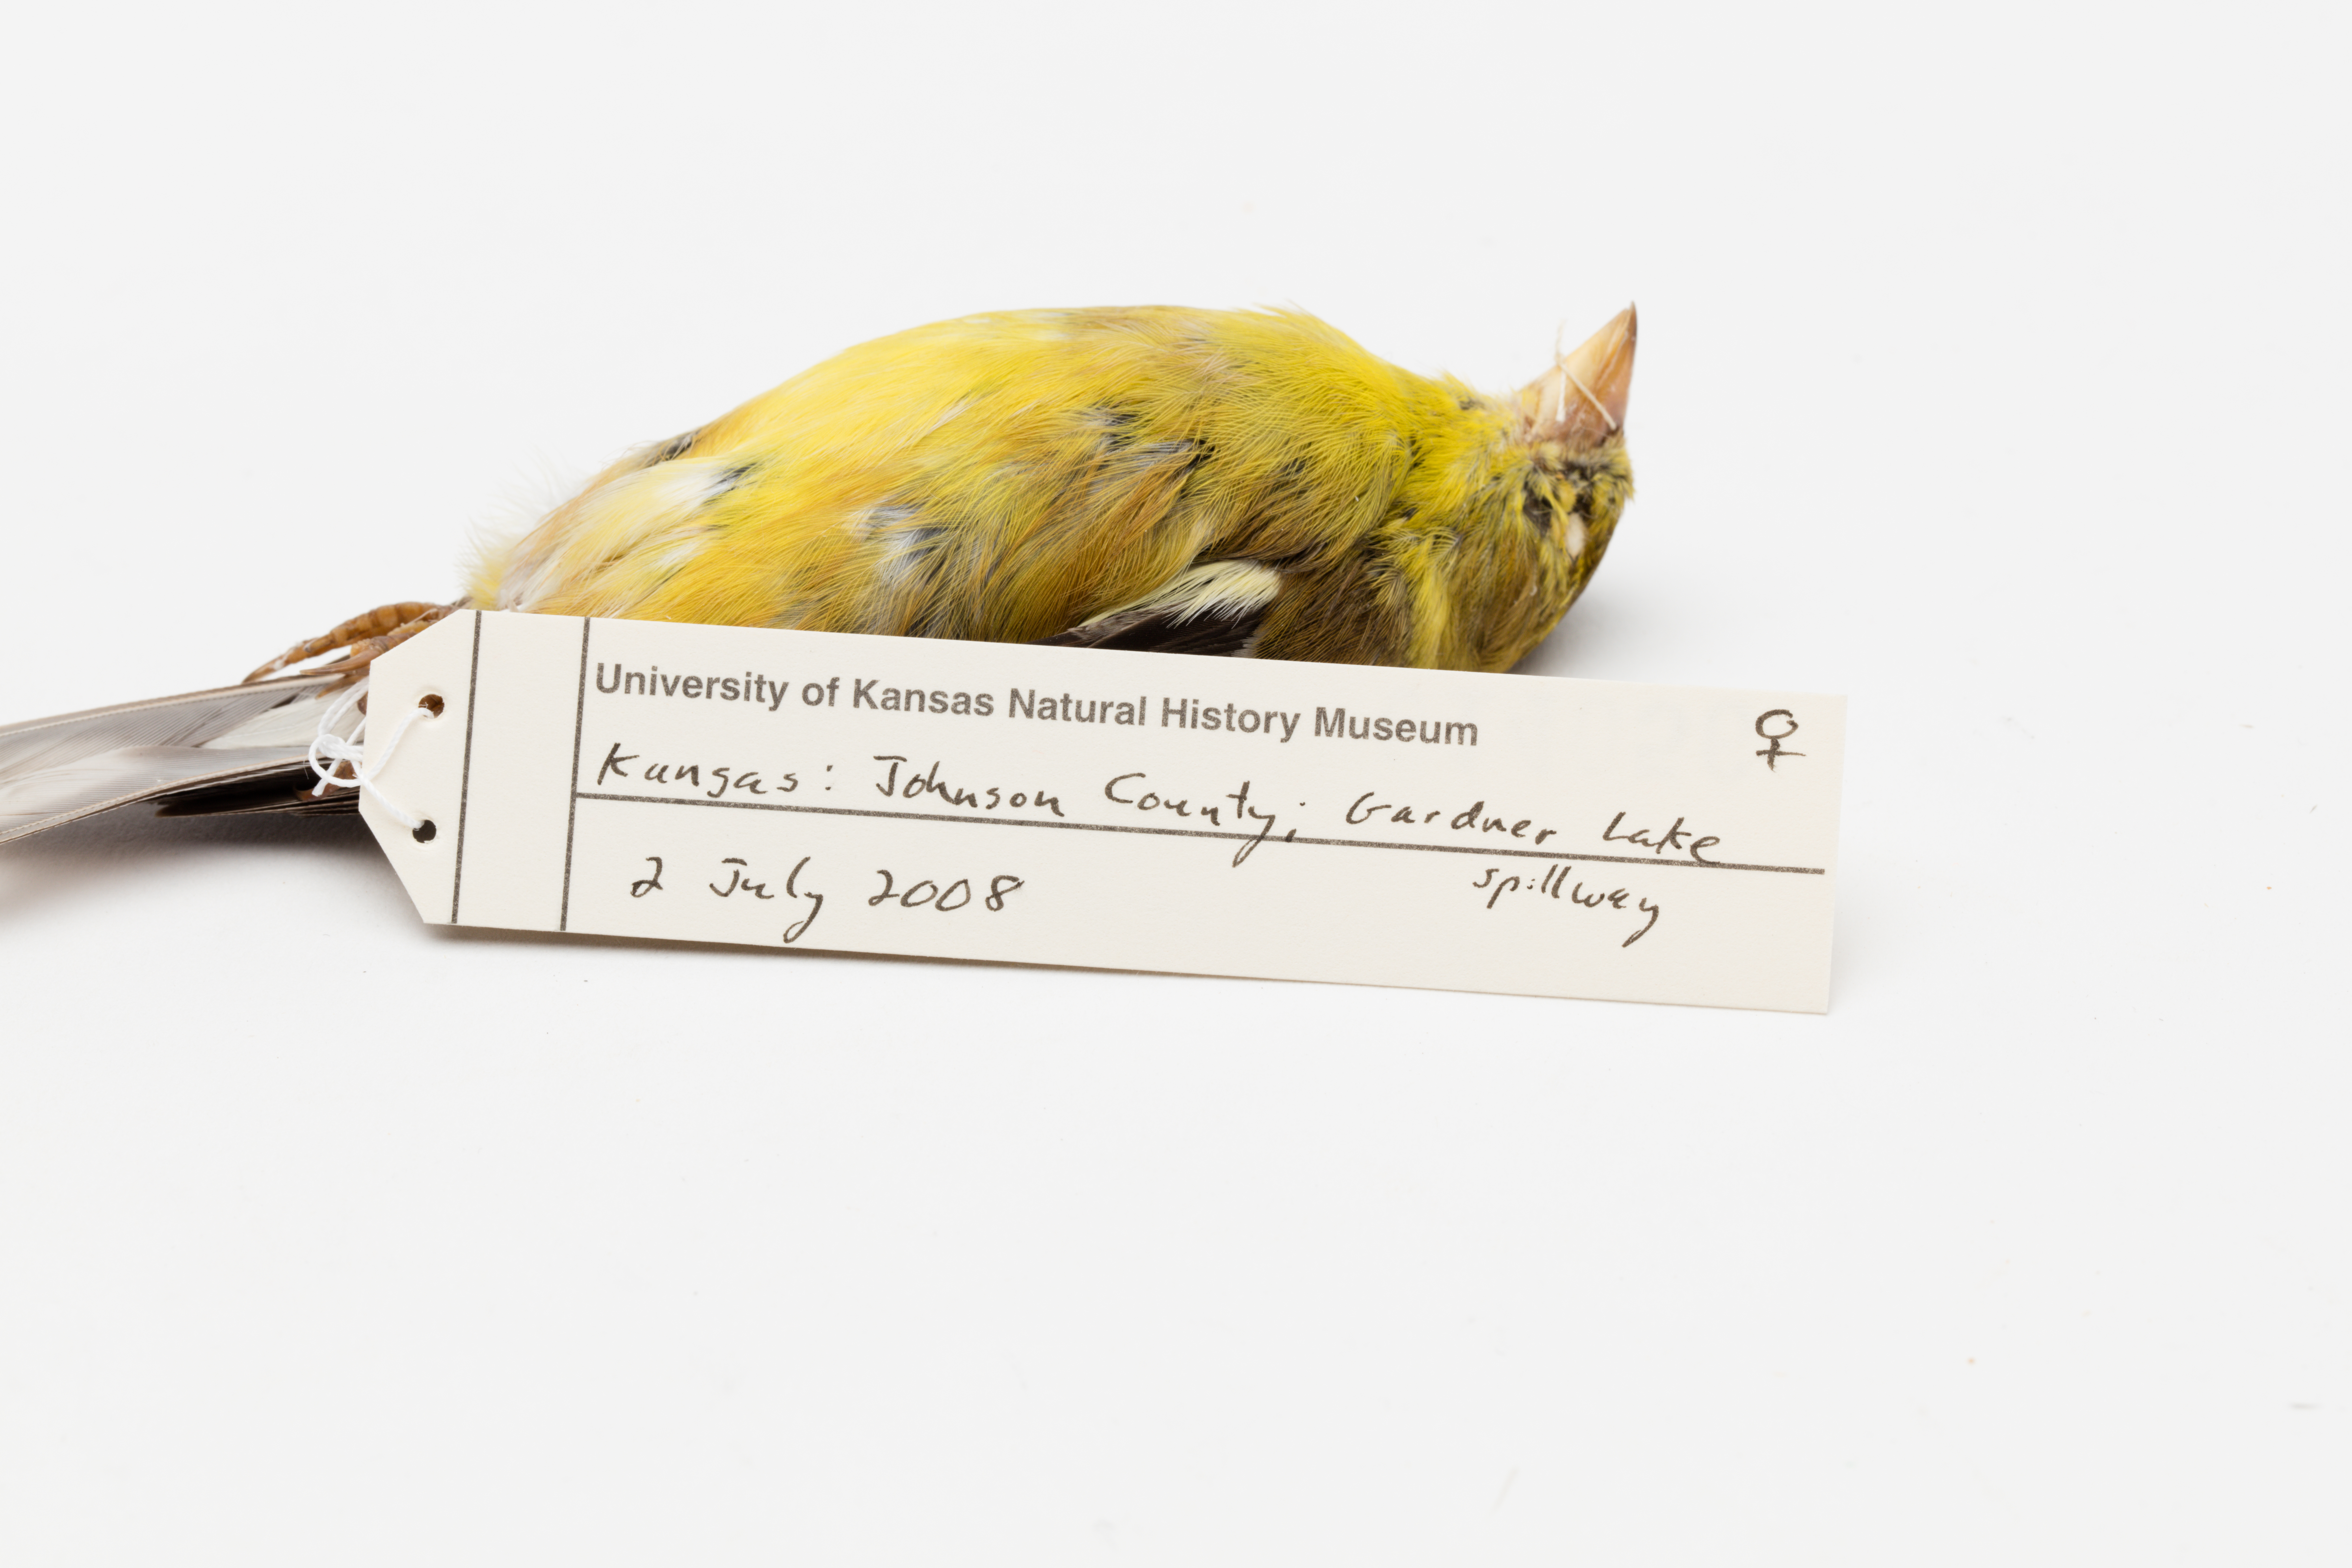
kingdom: Animalia
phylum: Chordata
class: Aves
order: Passeriformes
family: Fringillidae
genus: Spinus
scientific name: Spinus tristis
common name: American goldfinch
